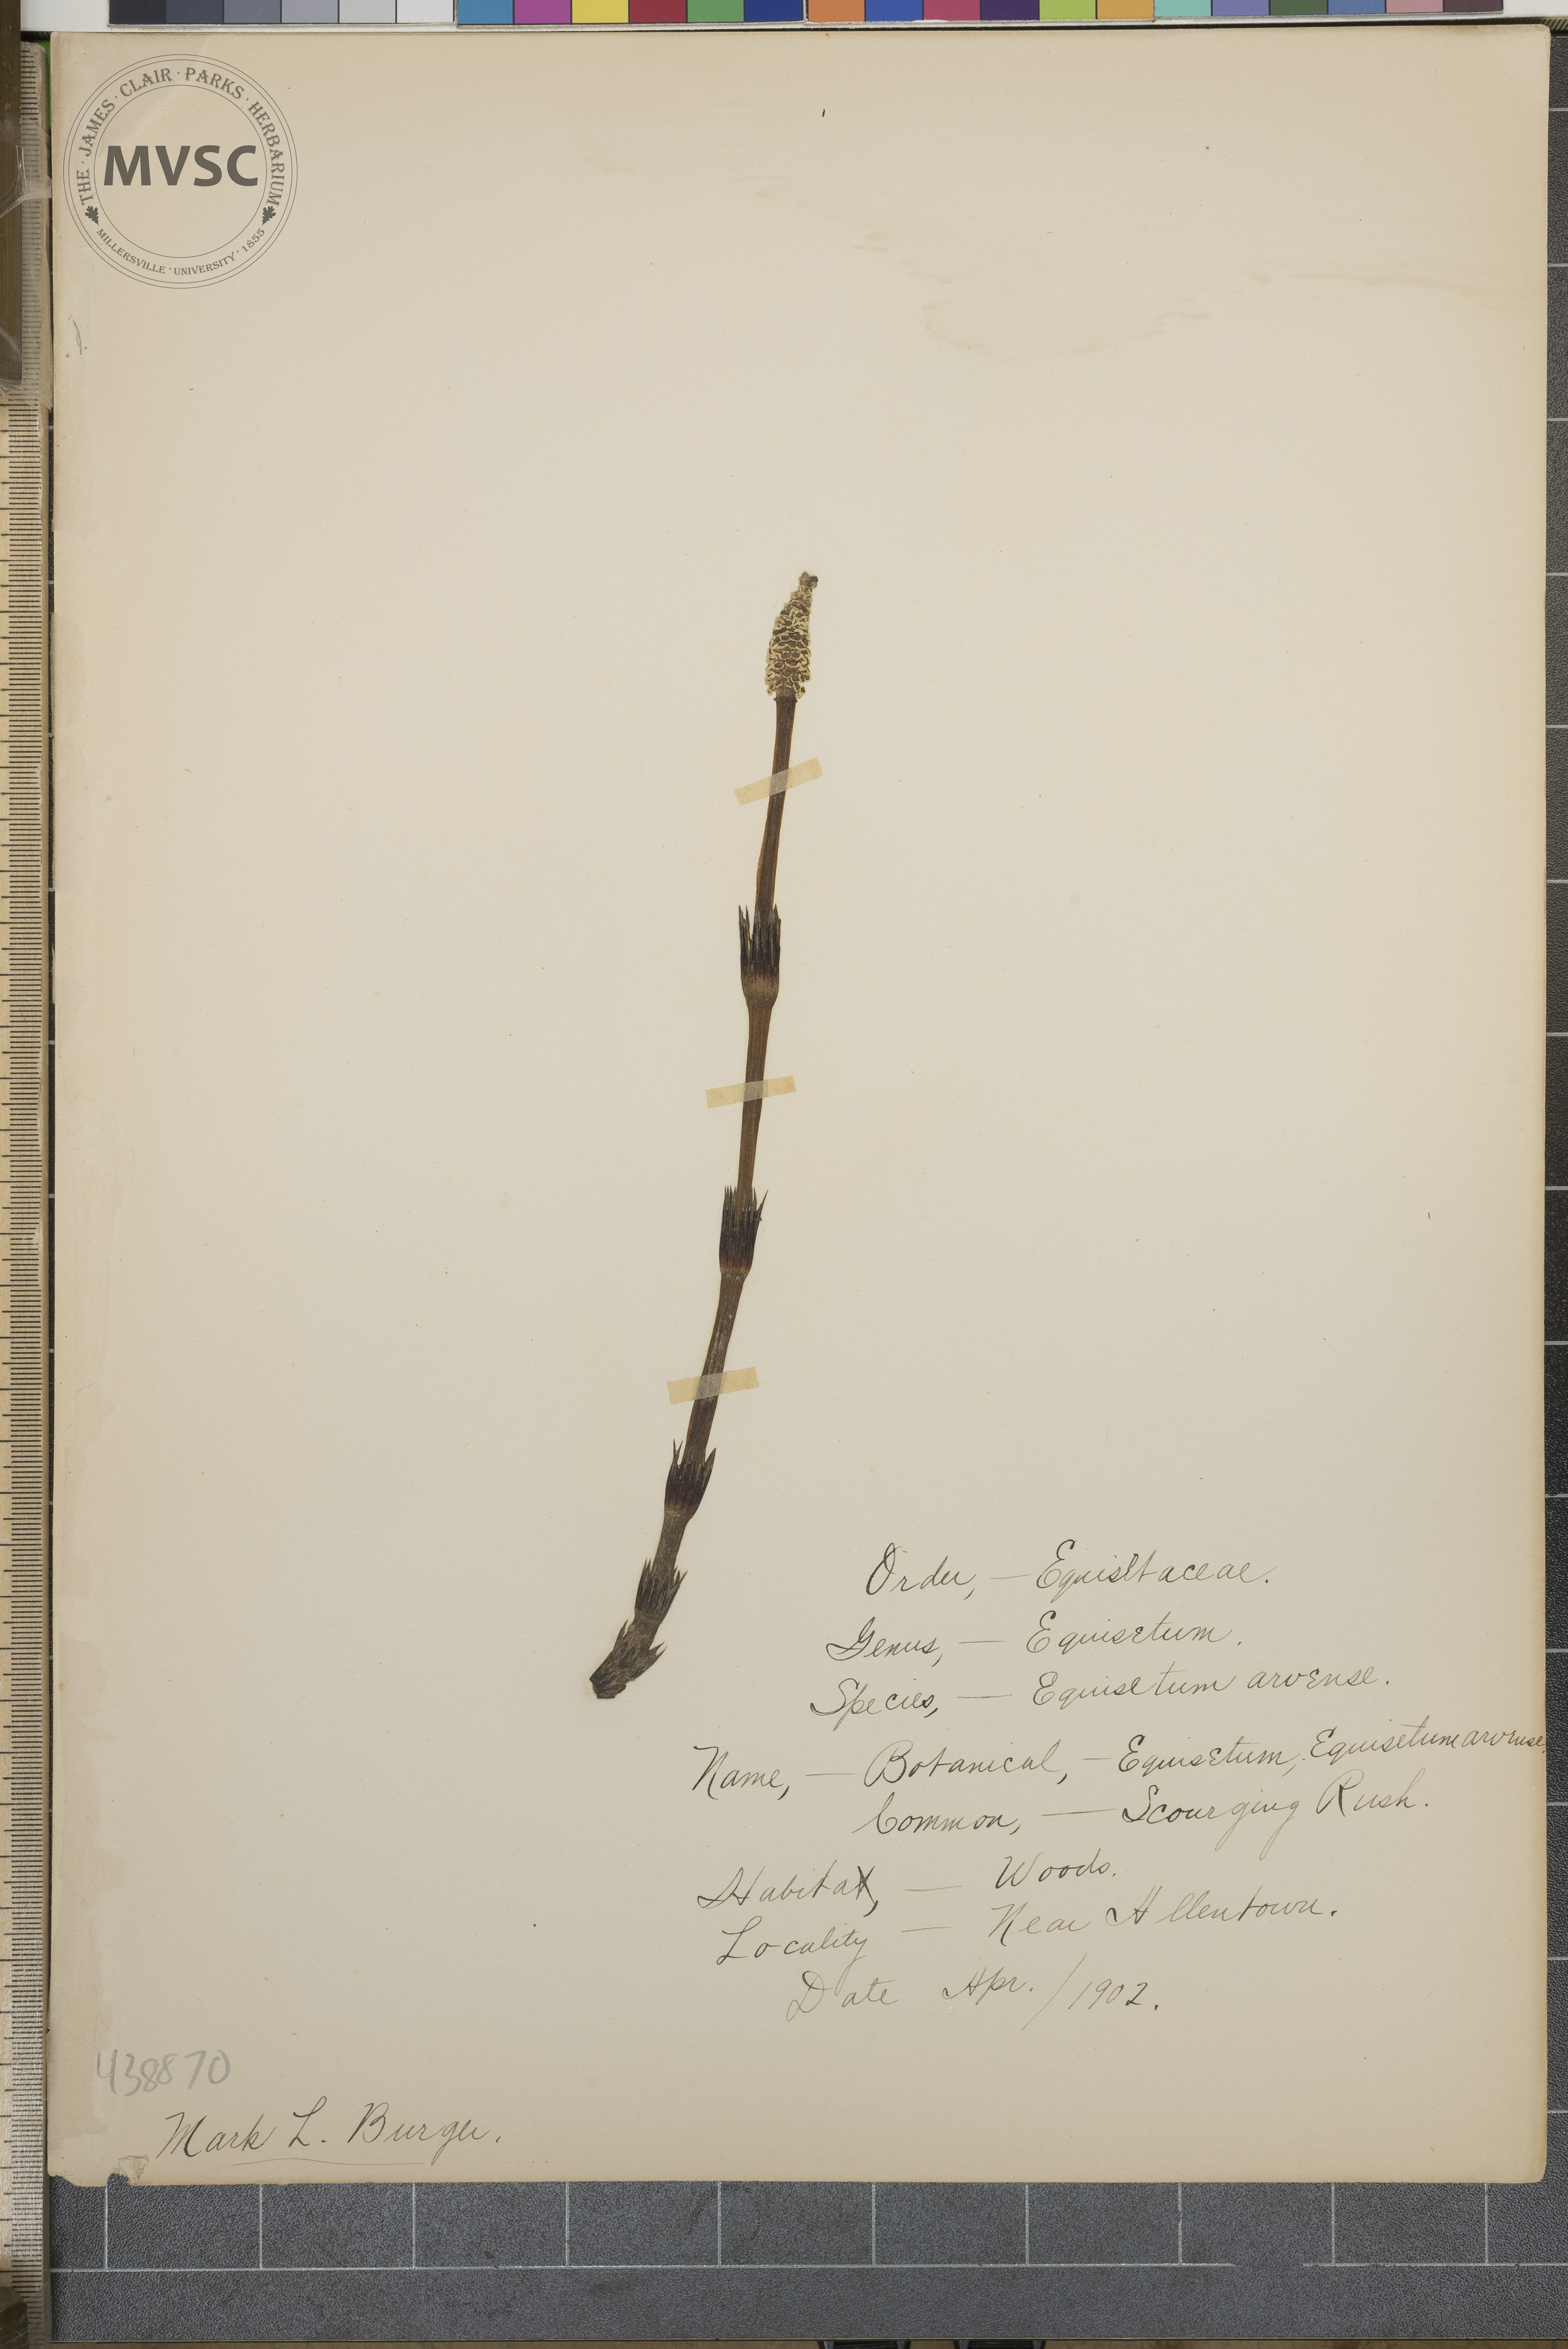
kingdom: Plantae
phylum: Tracheophyta
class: Polypodiopsida
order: Equisetales
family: Equisetaceae
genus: Equisetum
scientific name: Equisetum arvense
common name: Scouring rush
